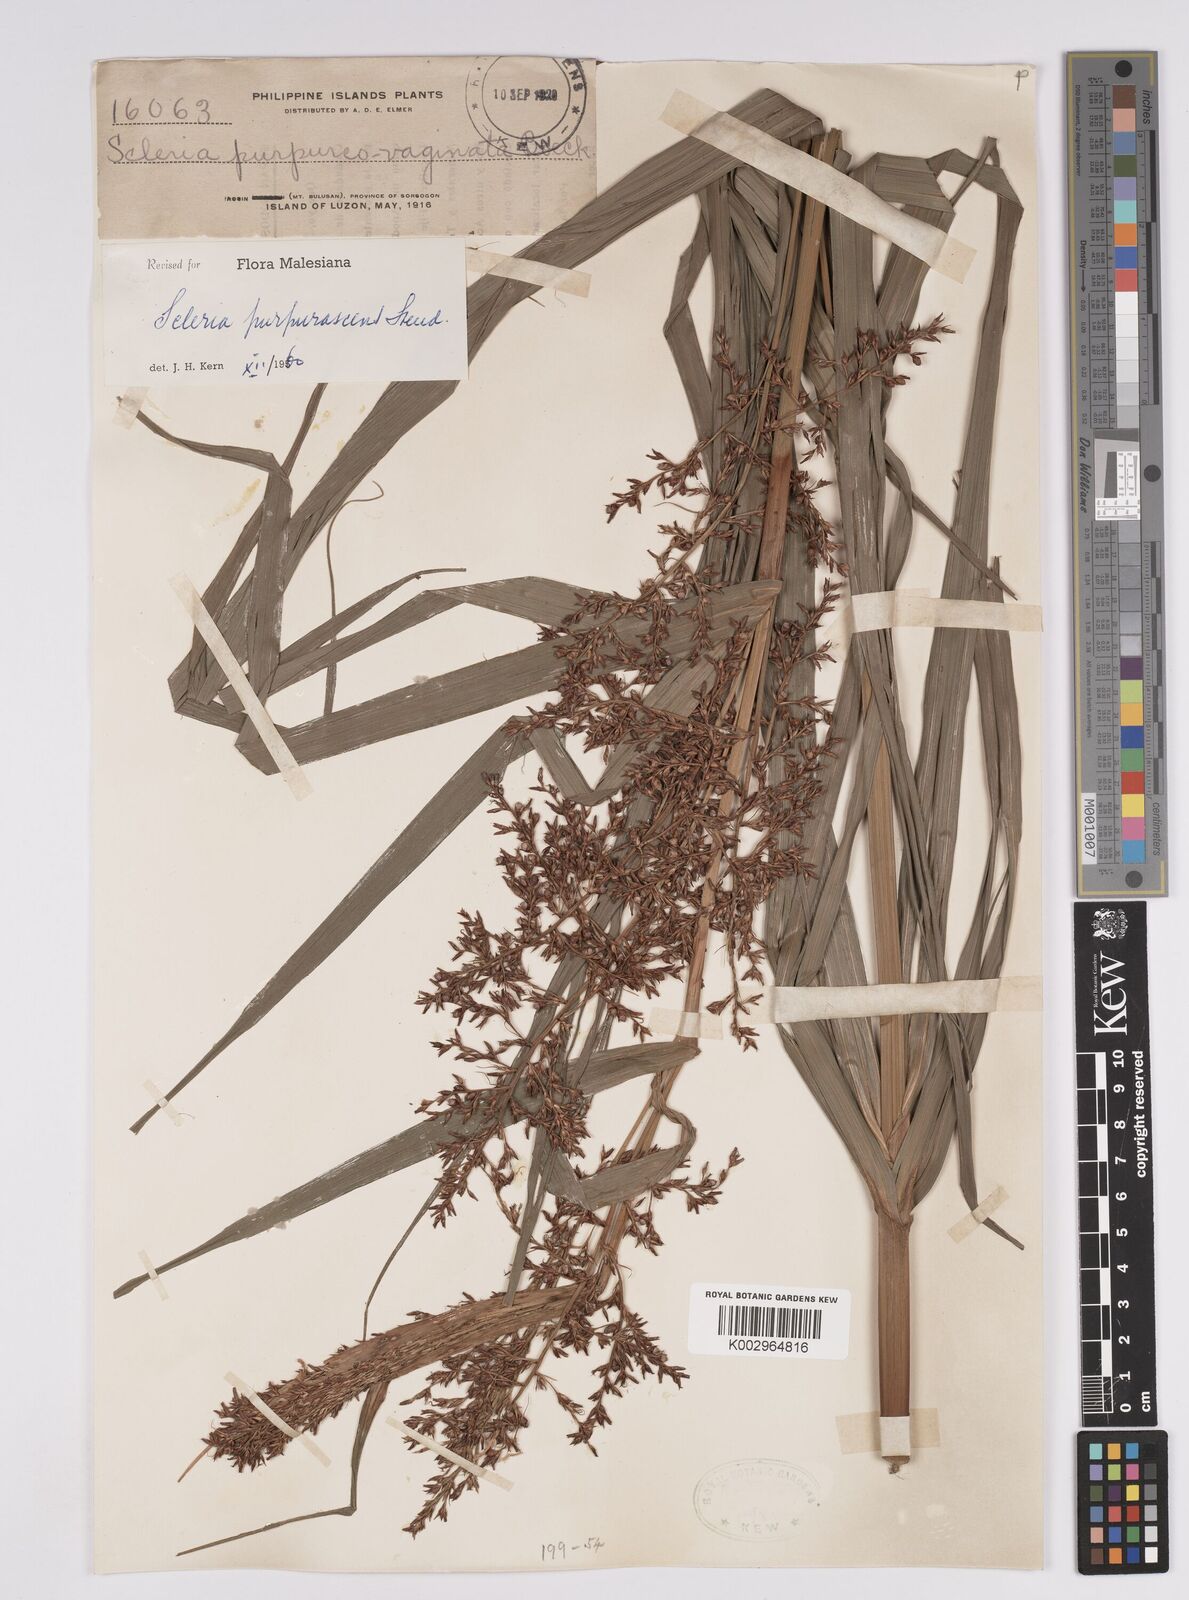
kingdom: Plantae
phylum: Tracheophyta
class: Liliopsida
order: Poales
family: Cyperaceae
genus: Scleria
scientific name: Scleria purpurascens
